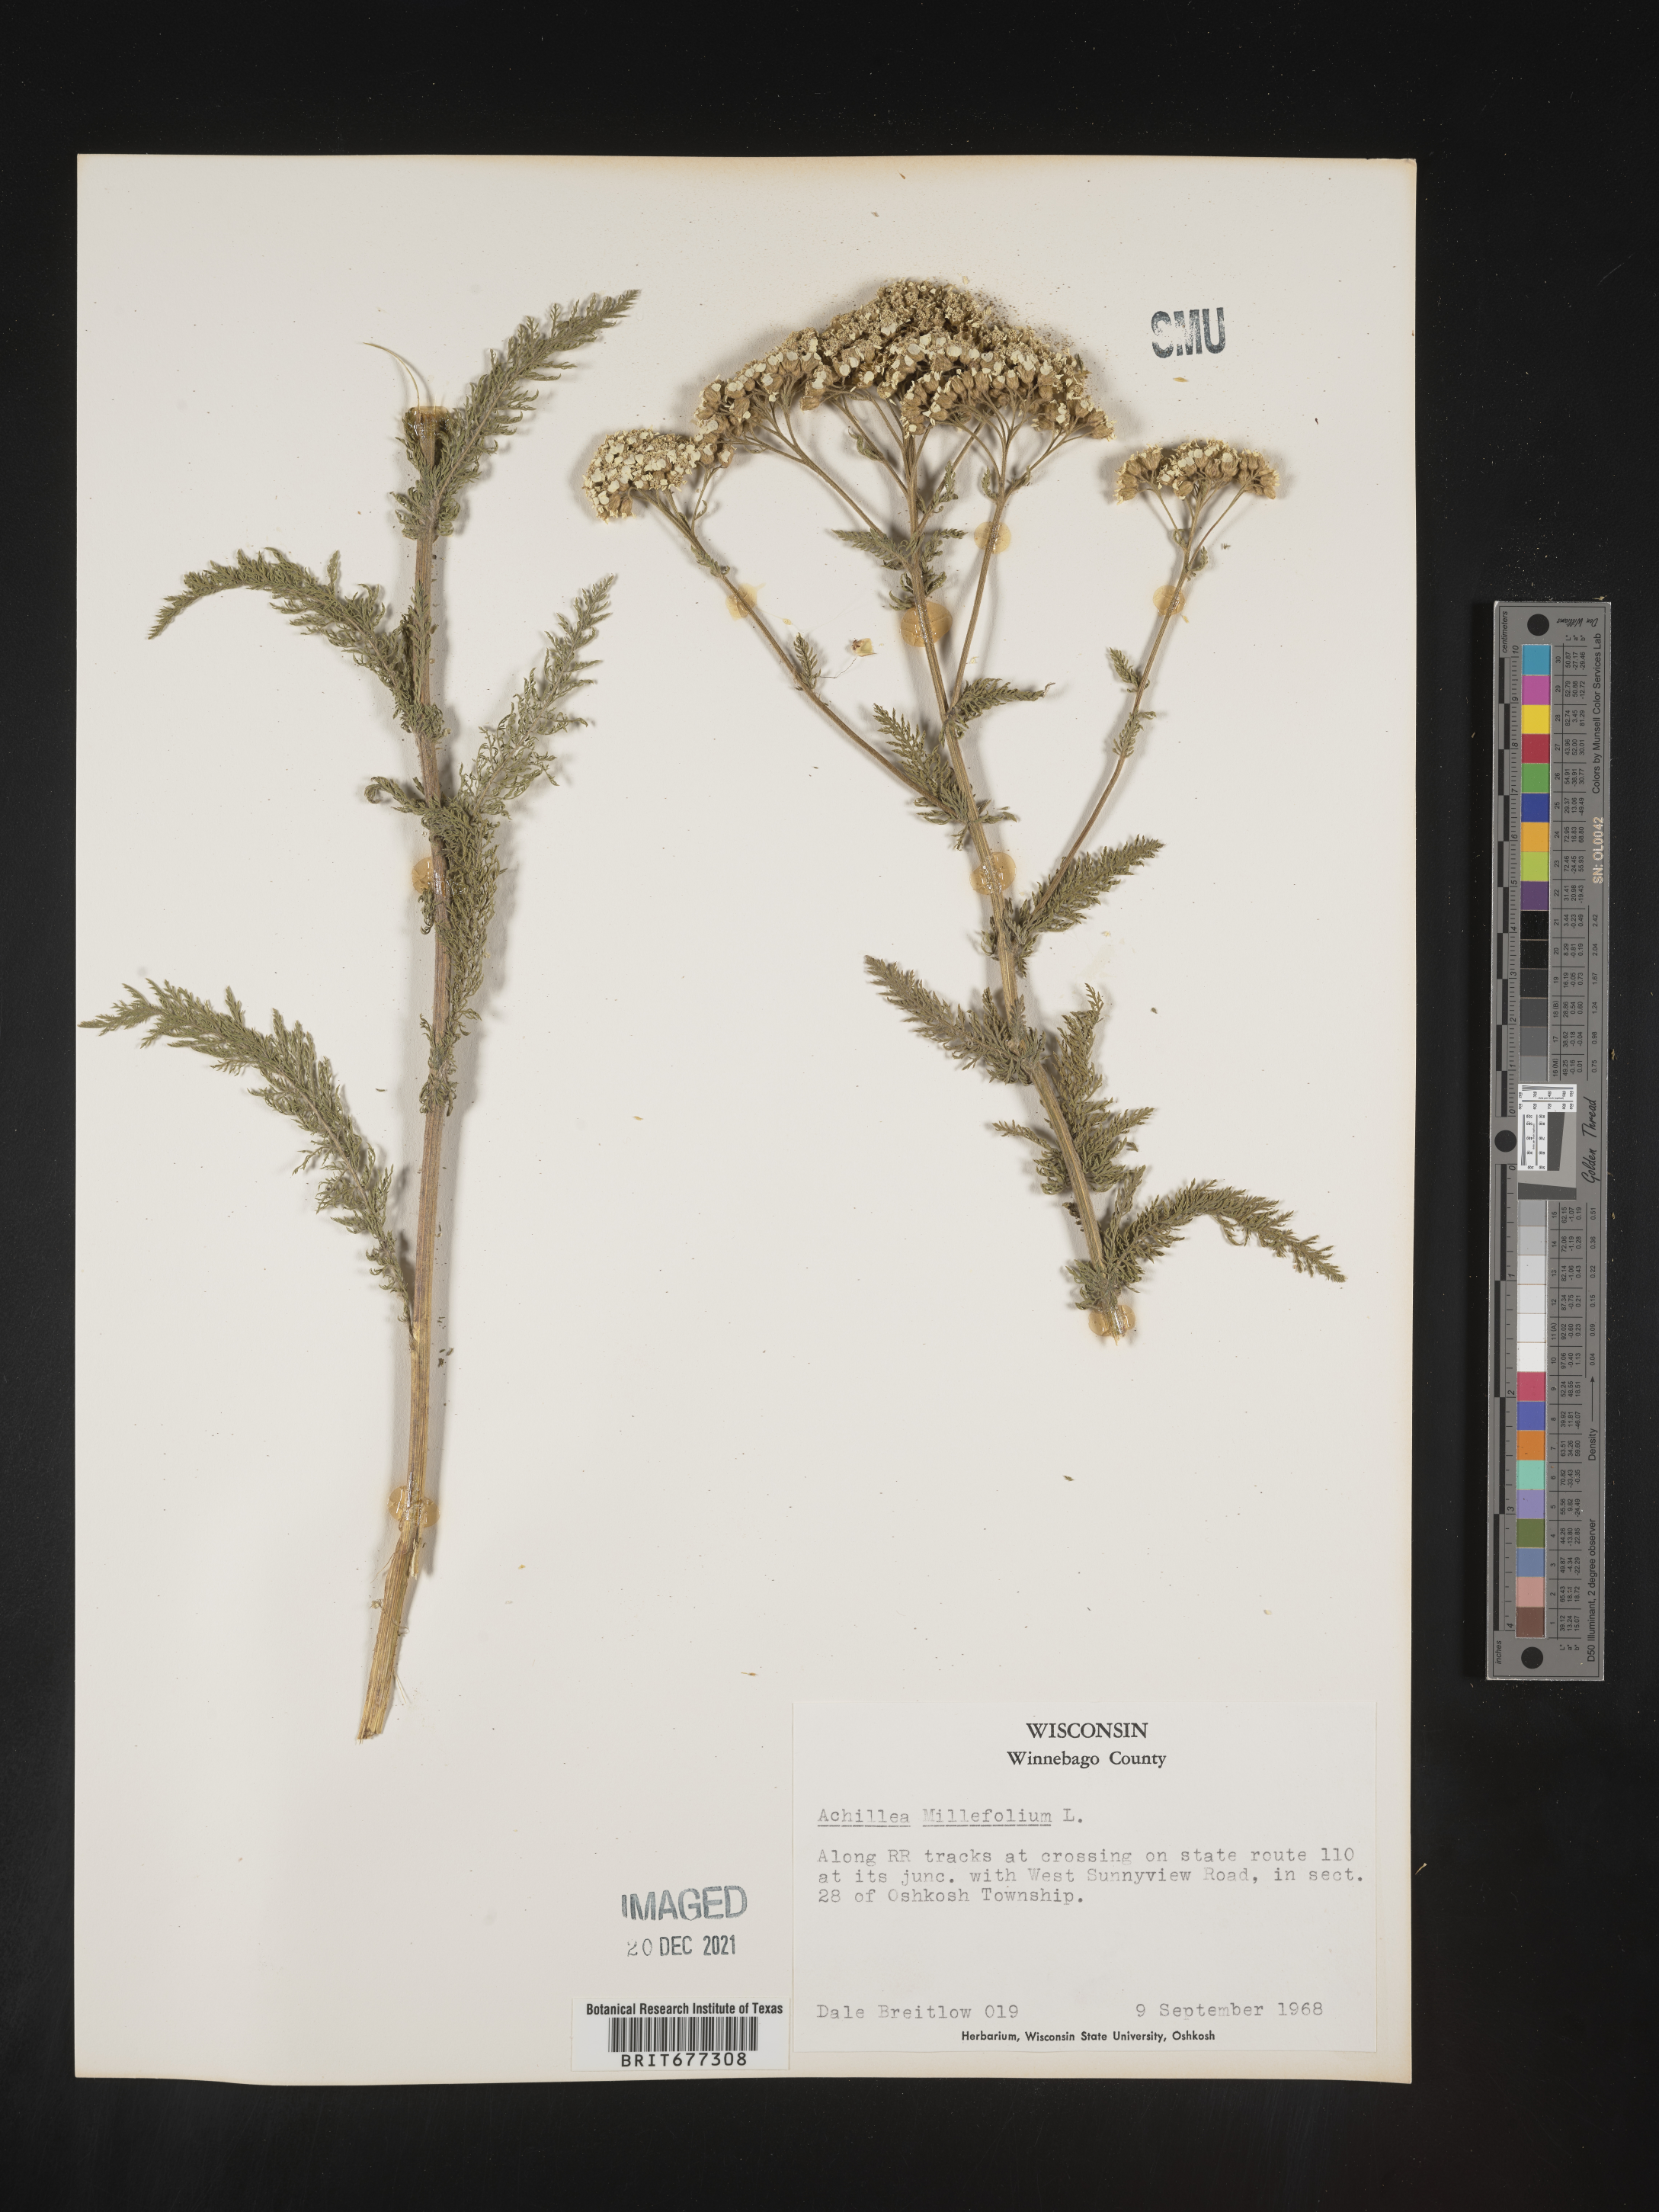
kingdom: Plantae
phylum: Tracheophyta
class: Magnoliopsida
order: Asterales
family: Asteraceae
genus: Achillea
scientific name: Achillea millefolium
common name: Yarrow
